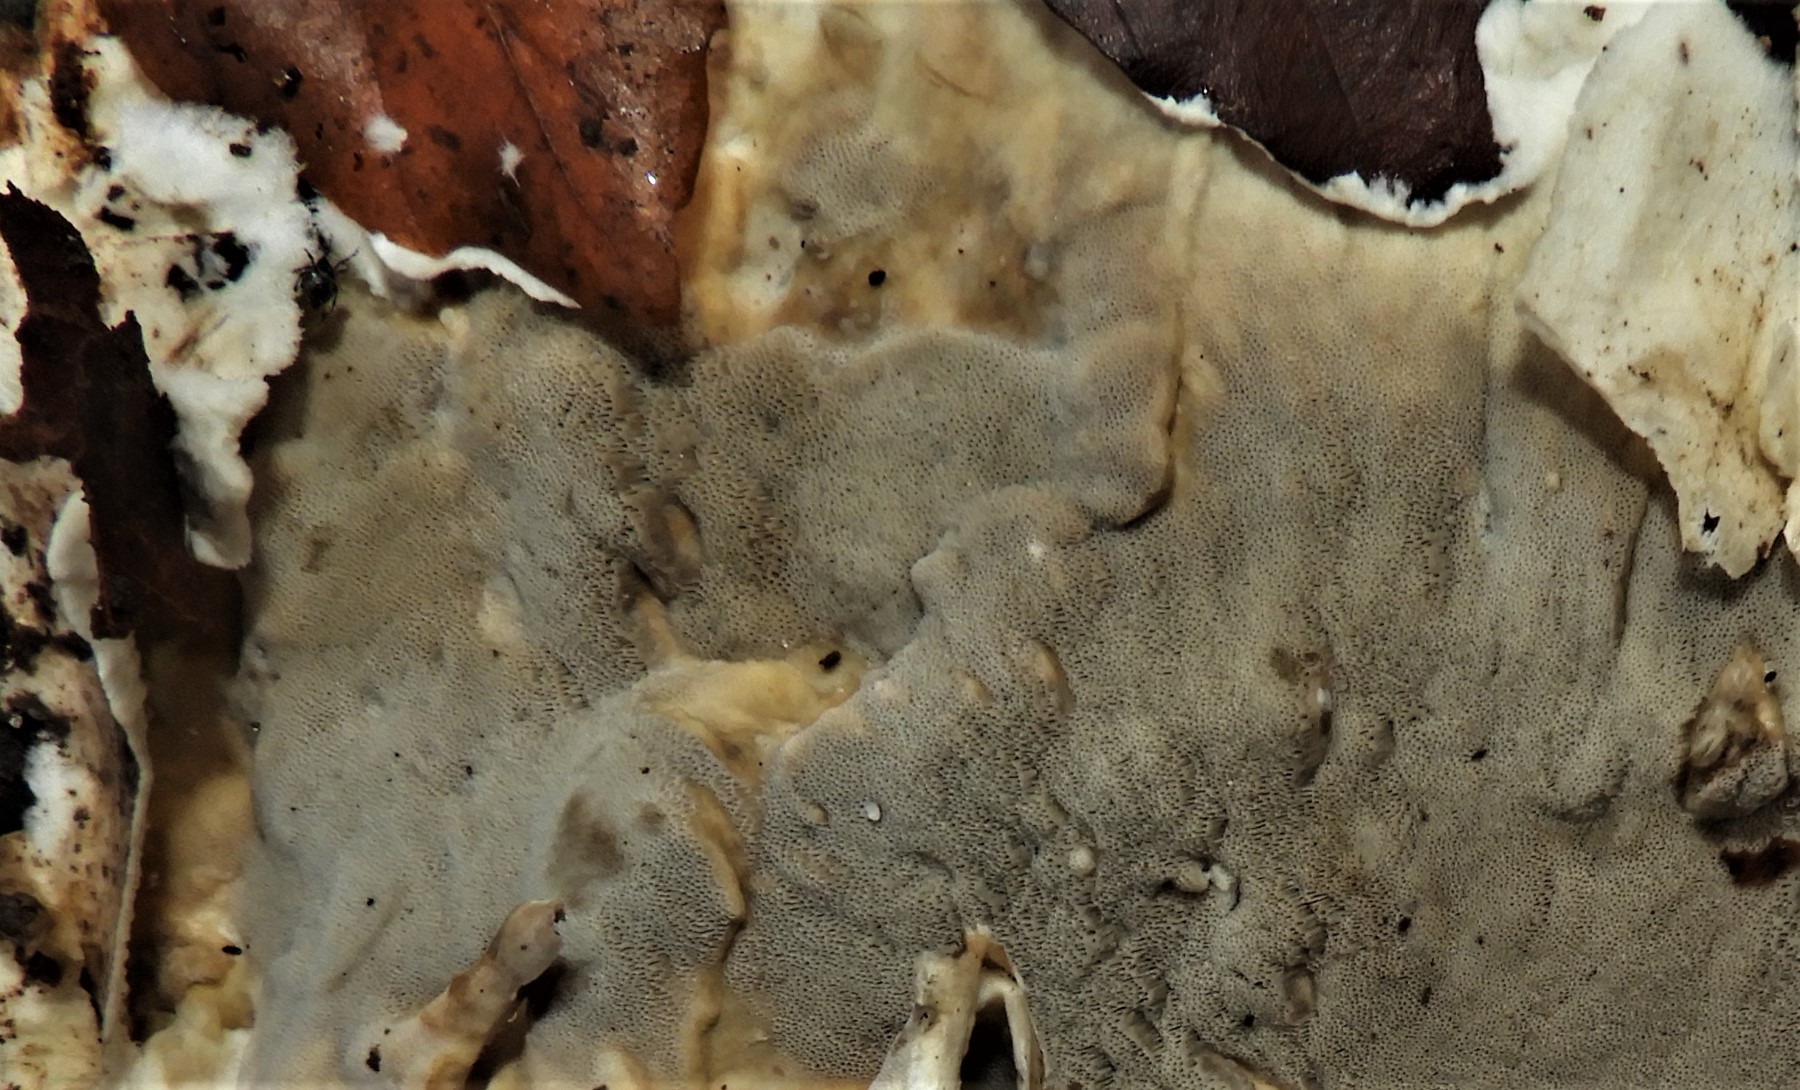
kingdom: Fungi
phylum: Basidiomycota
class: Agaricomycetes
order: Polyporales
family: Phanerochaetaceae
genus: Bjerkandera
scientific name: Bjerkandera adusta
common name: sveden sodporesvamp
